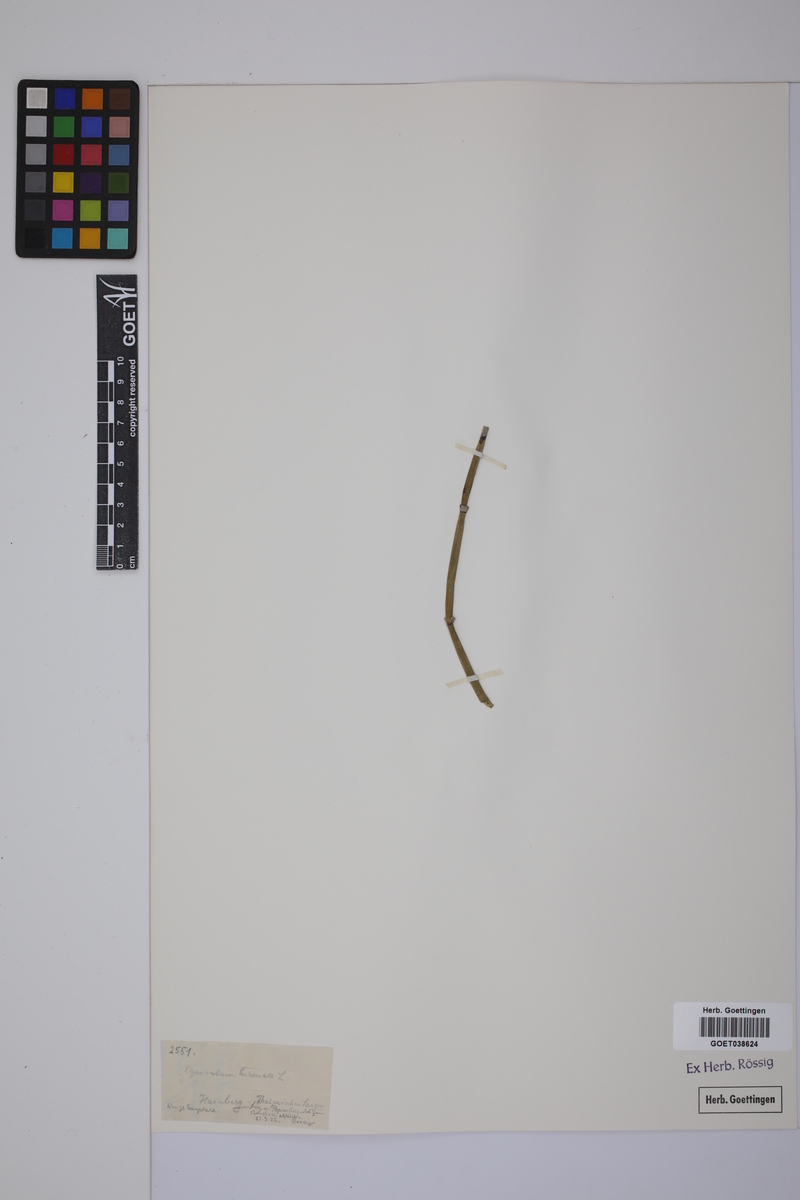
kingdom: Plantae
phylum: Tracheophyta
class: Polypodiopsida
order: Equisetales
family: Equisetaceae
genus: Equisetum
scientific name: Equisetum hyemale
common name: Rough horsetail
